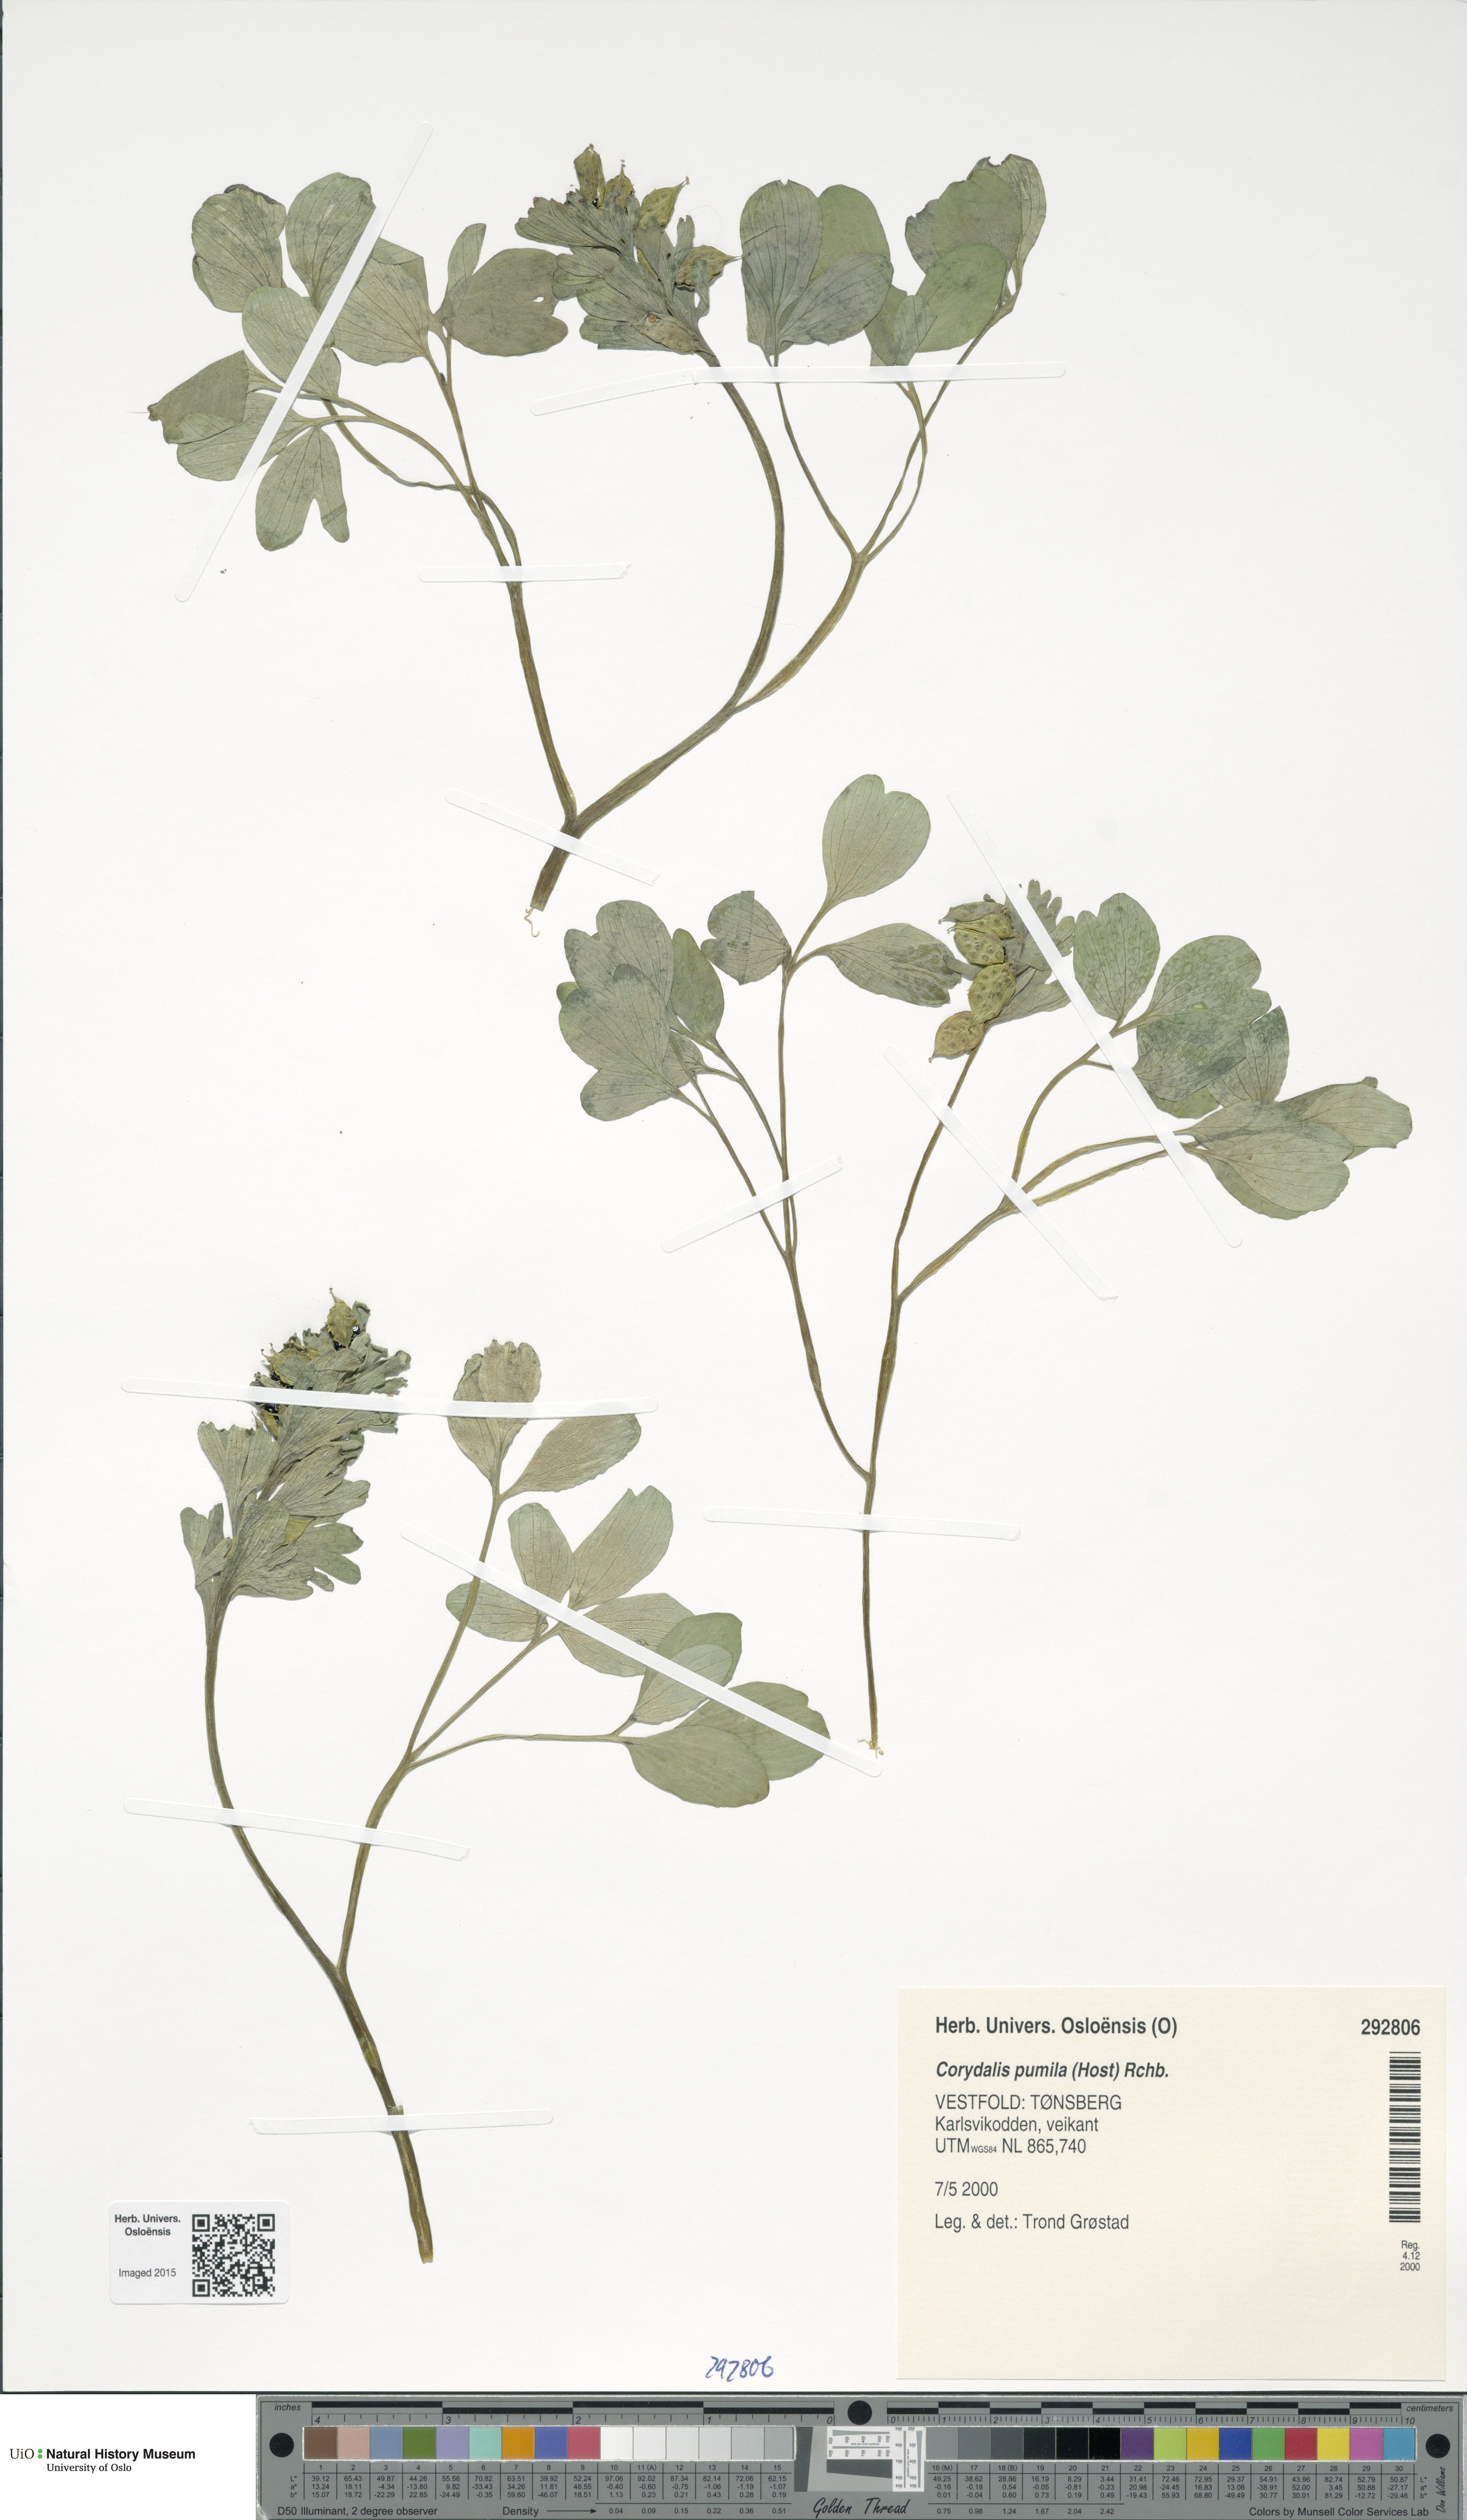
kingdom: Plantae
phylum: Tracheophyta
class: Magnoliopsida
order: Ranunculales
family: Papaveraceae
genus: Corydalis
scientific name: Corydalis pumila
